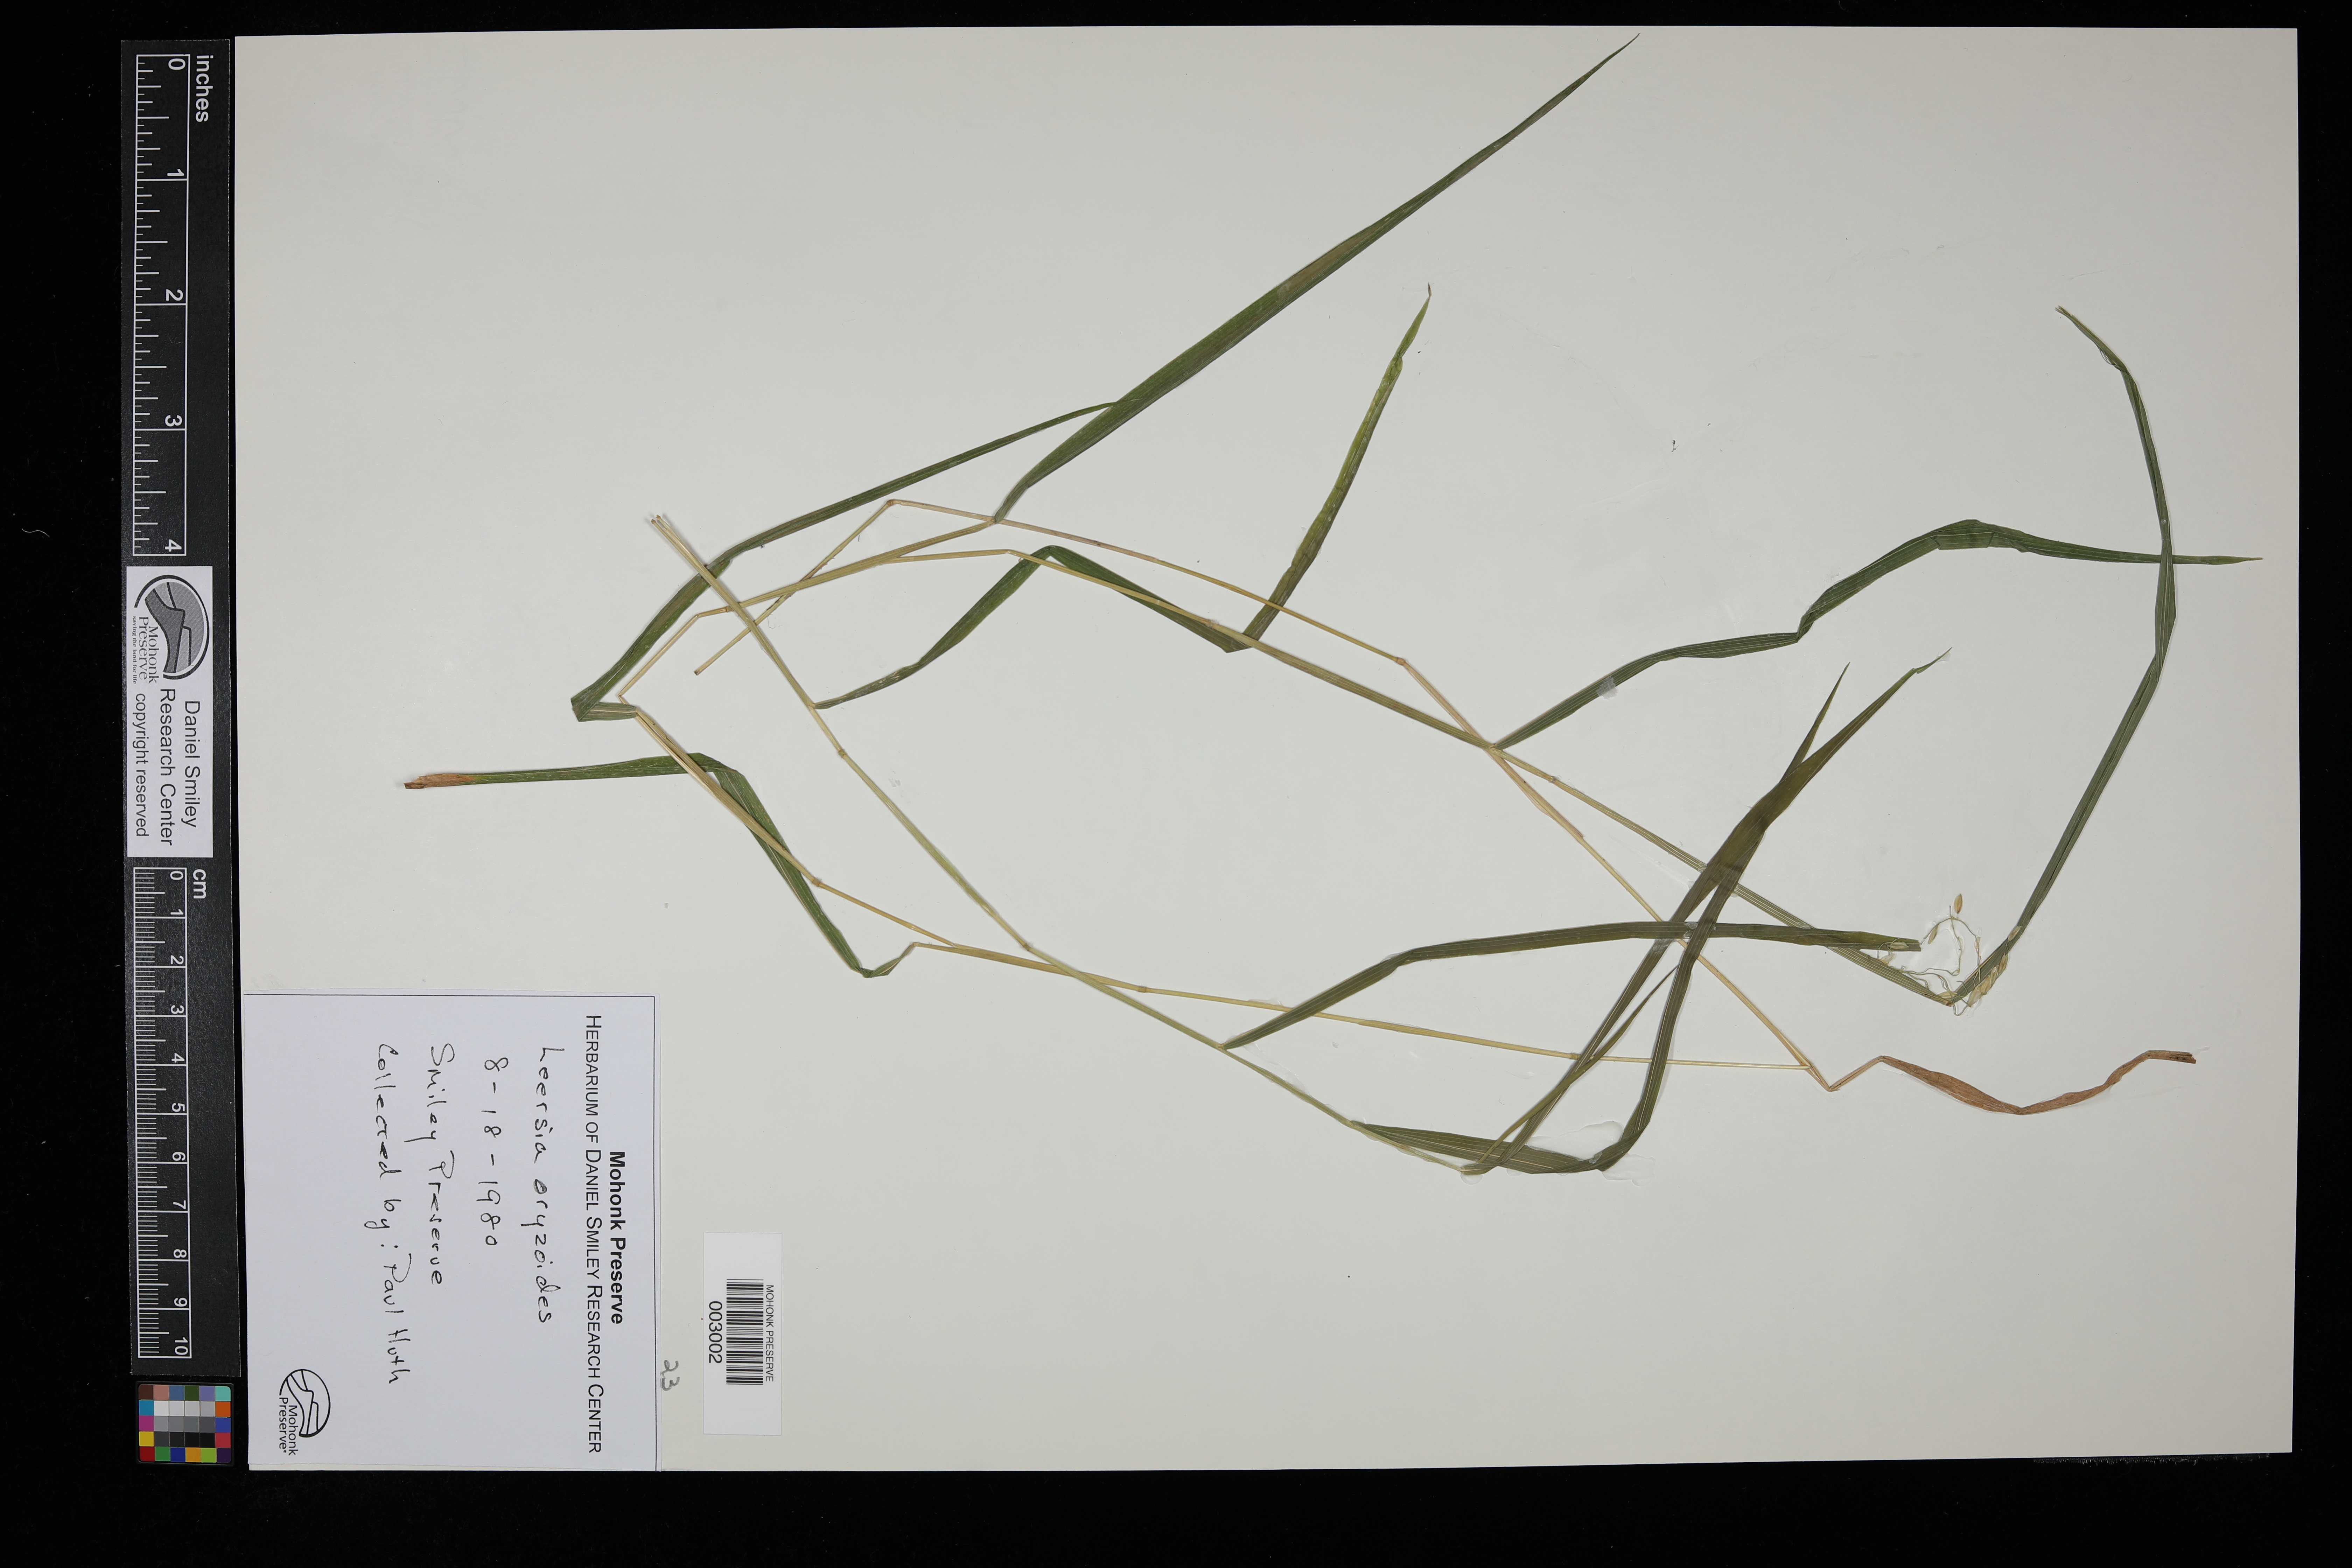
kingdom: Plantae
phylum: Tracheophyta
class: Liliopsida
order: Poales
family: Poaceae
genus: Leersia
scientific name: Leersia oryzoides
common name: Cut-grass
